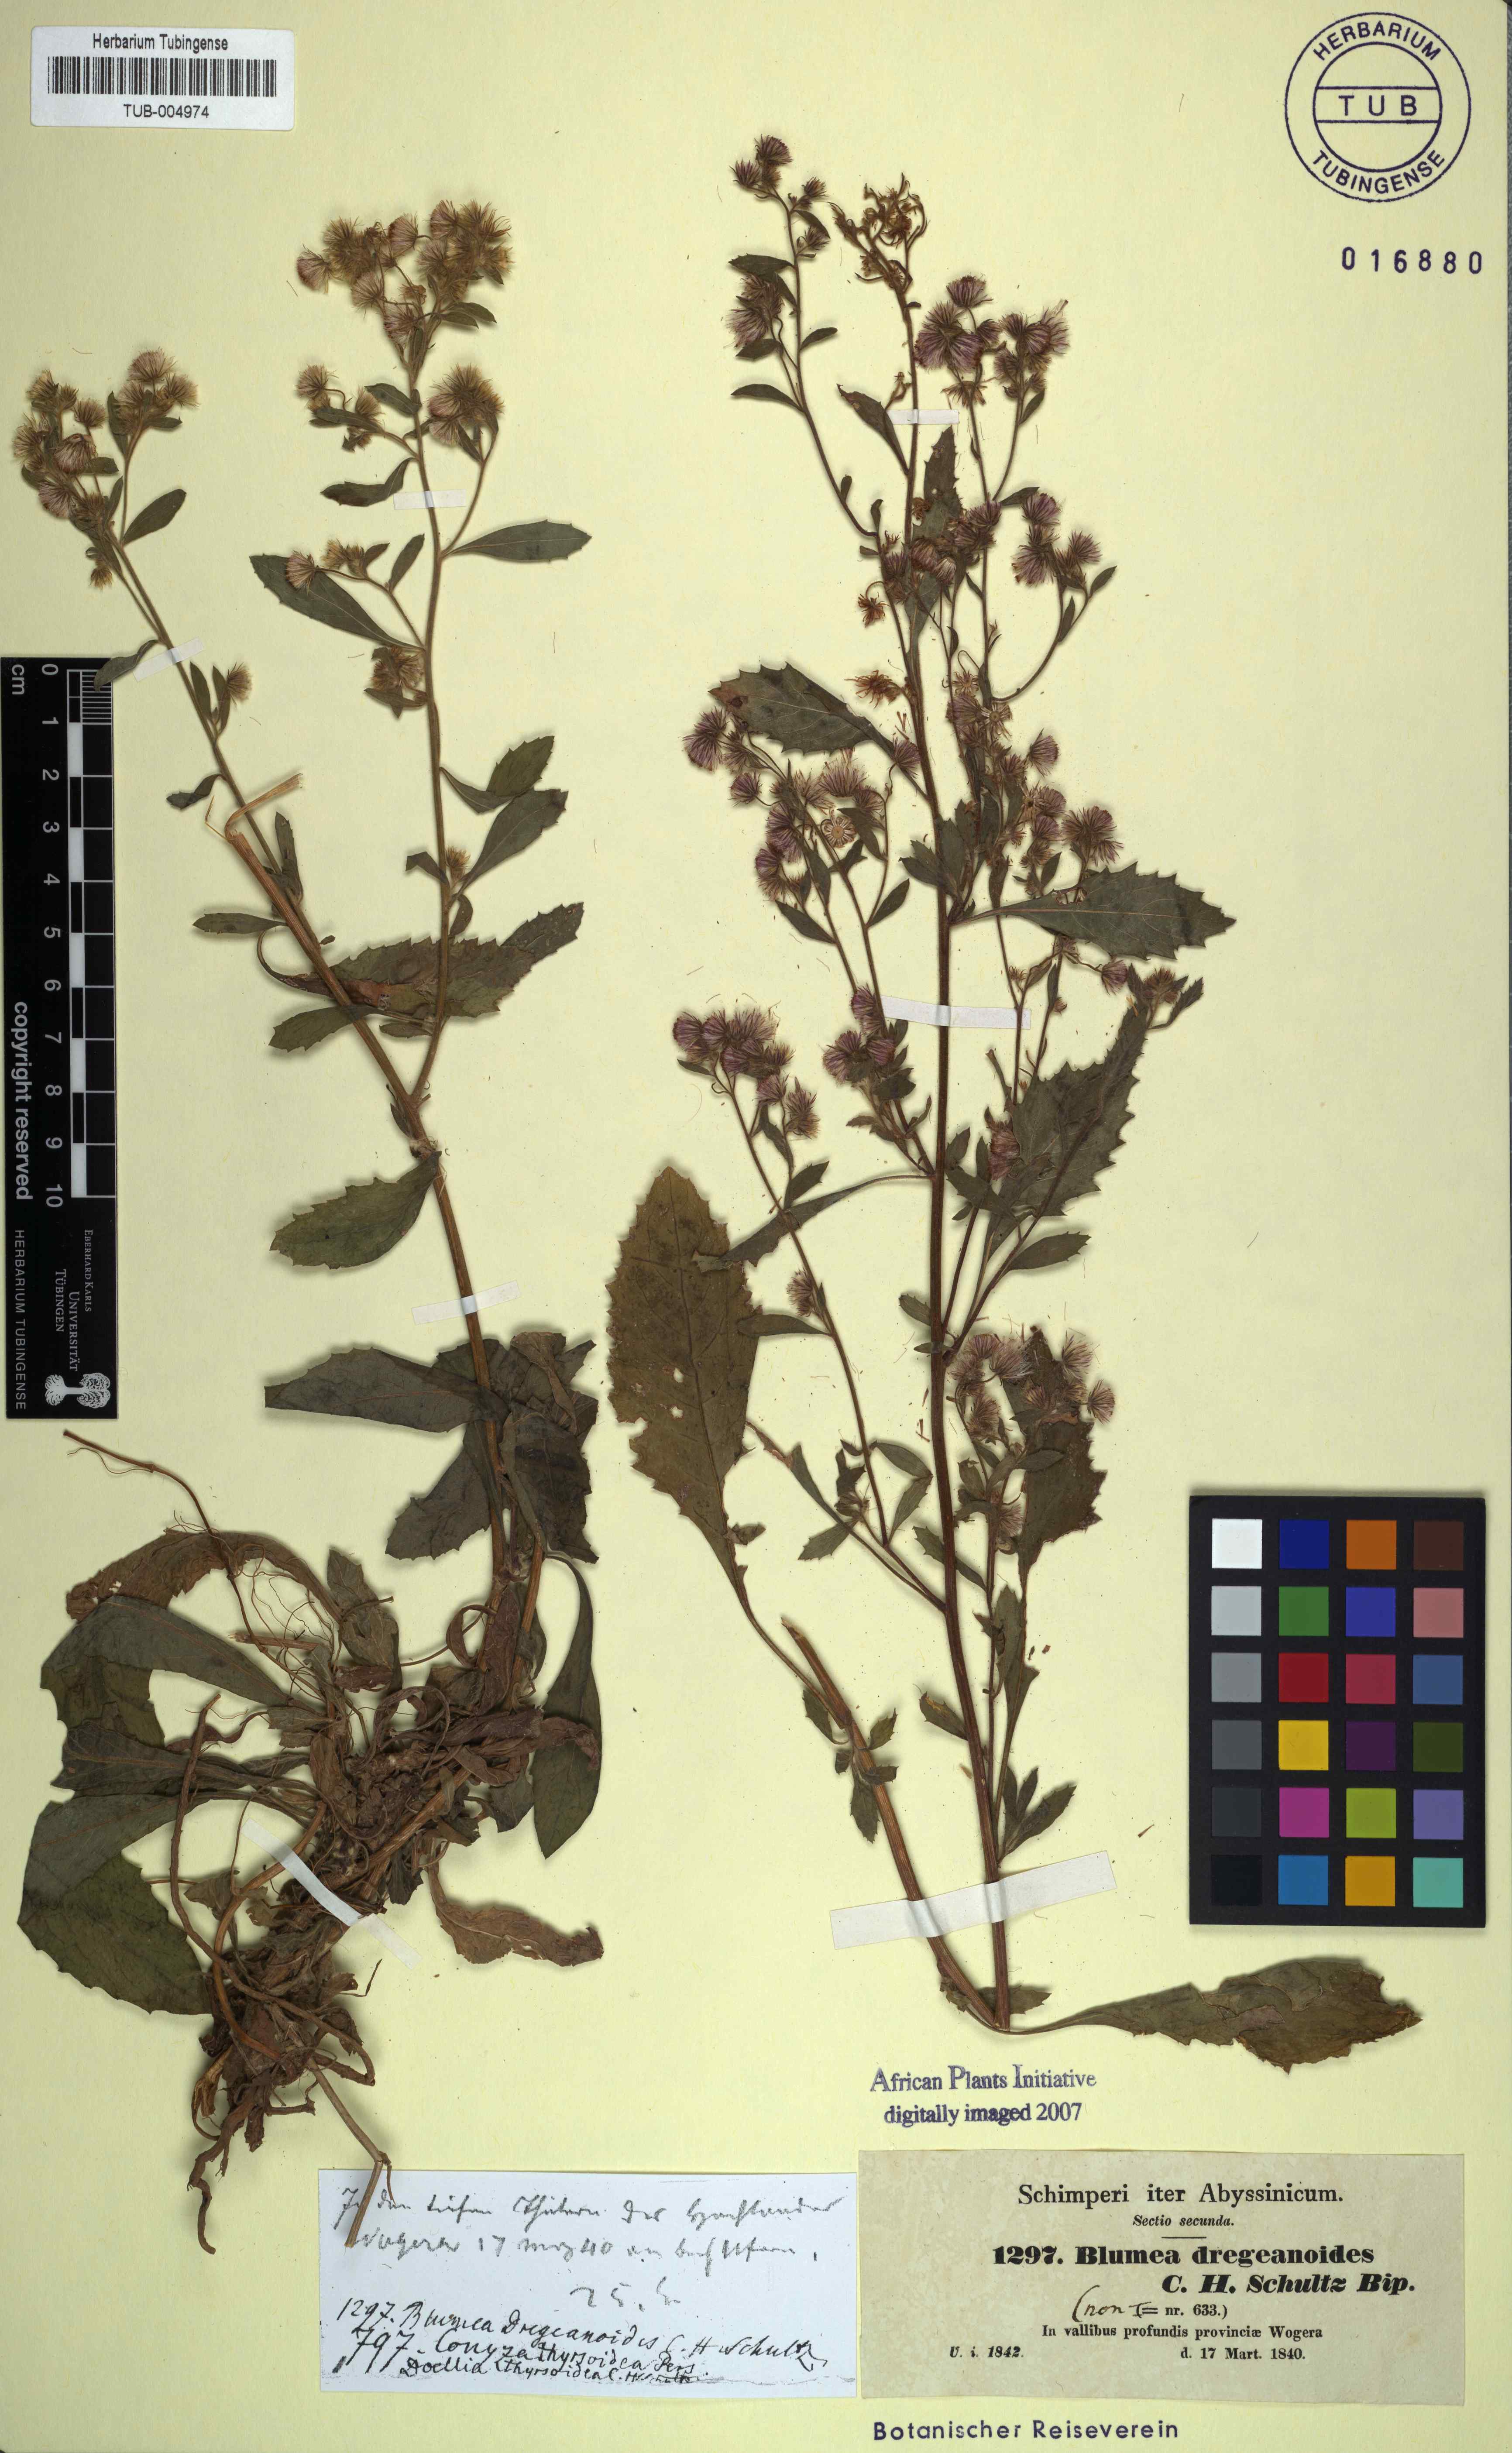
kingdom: Plantae
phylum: Tracheophyta
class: Magnoliopsida
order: Asterales
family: Asteraceae
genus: Blumea
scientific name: Blumea lacera
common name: Malay blumea
